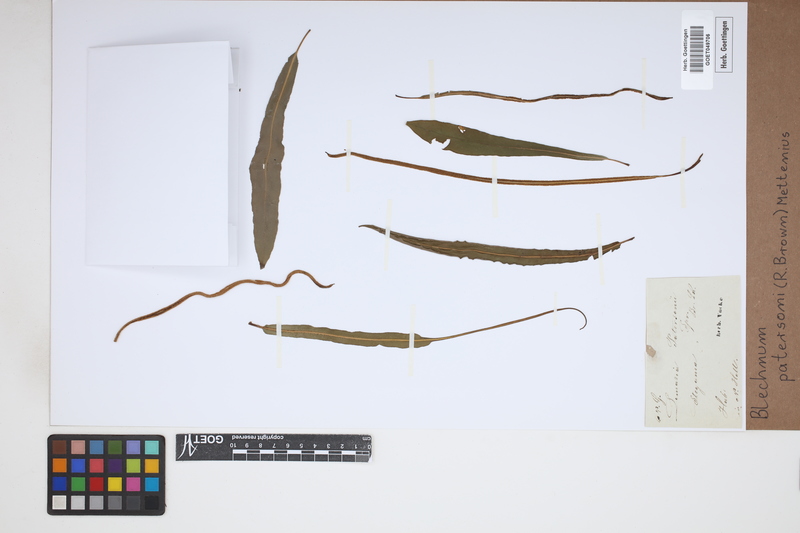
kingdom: Plantae
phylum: Tracheophyta
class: Polypodiopsida
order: Polypodiales
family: Blechnaceae
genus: Austroblechnum
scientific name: Austroblechnum patersonii
